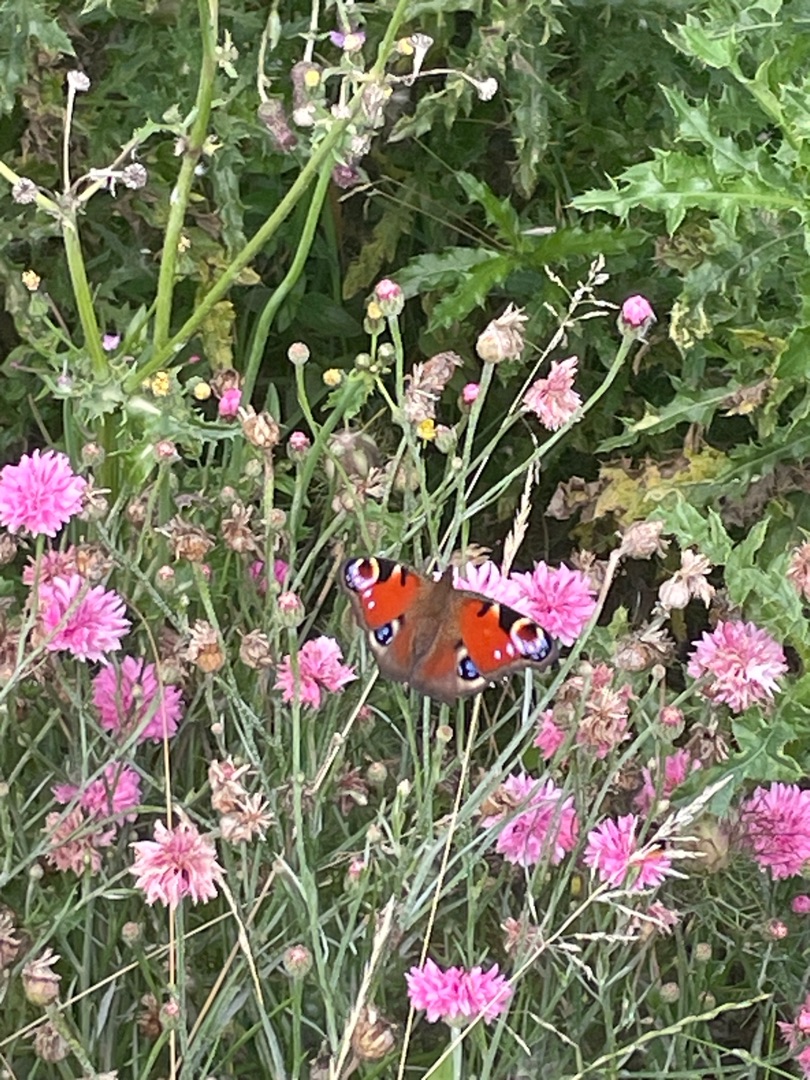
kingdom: Animalia
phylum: Arthropoda
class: Insecta
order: Lepidoptera
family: Nymphalidae
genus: Aglais
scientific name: Aglais io
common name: Dagpåfugleøje
